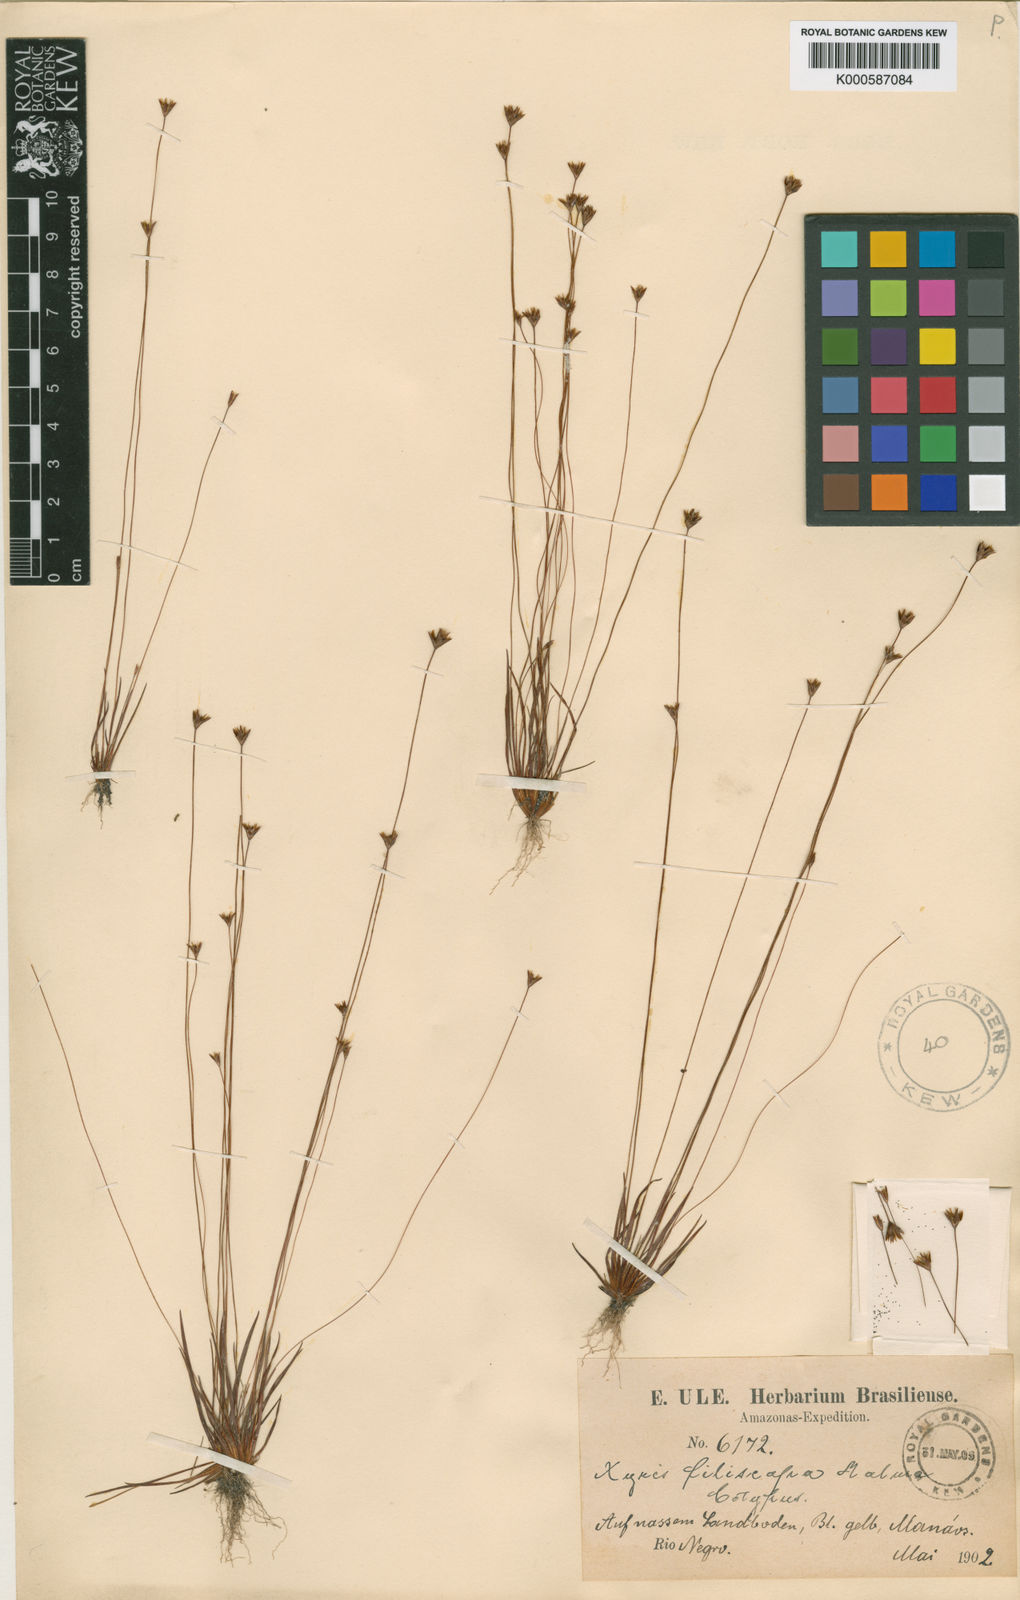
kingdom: Plantae
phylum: Tracheophyta
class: Liliopsida
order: Poales
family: Xyridaceae
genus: Xyris
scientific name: Xyris guianensis
